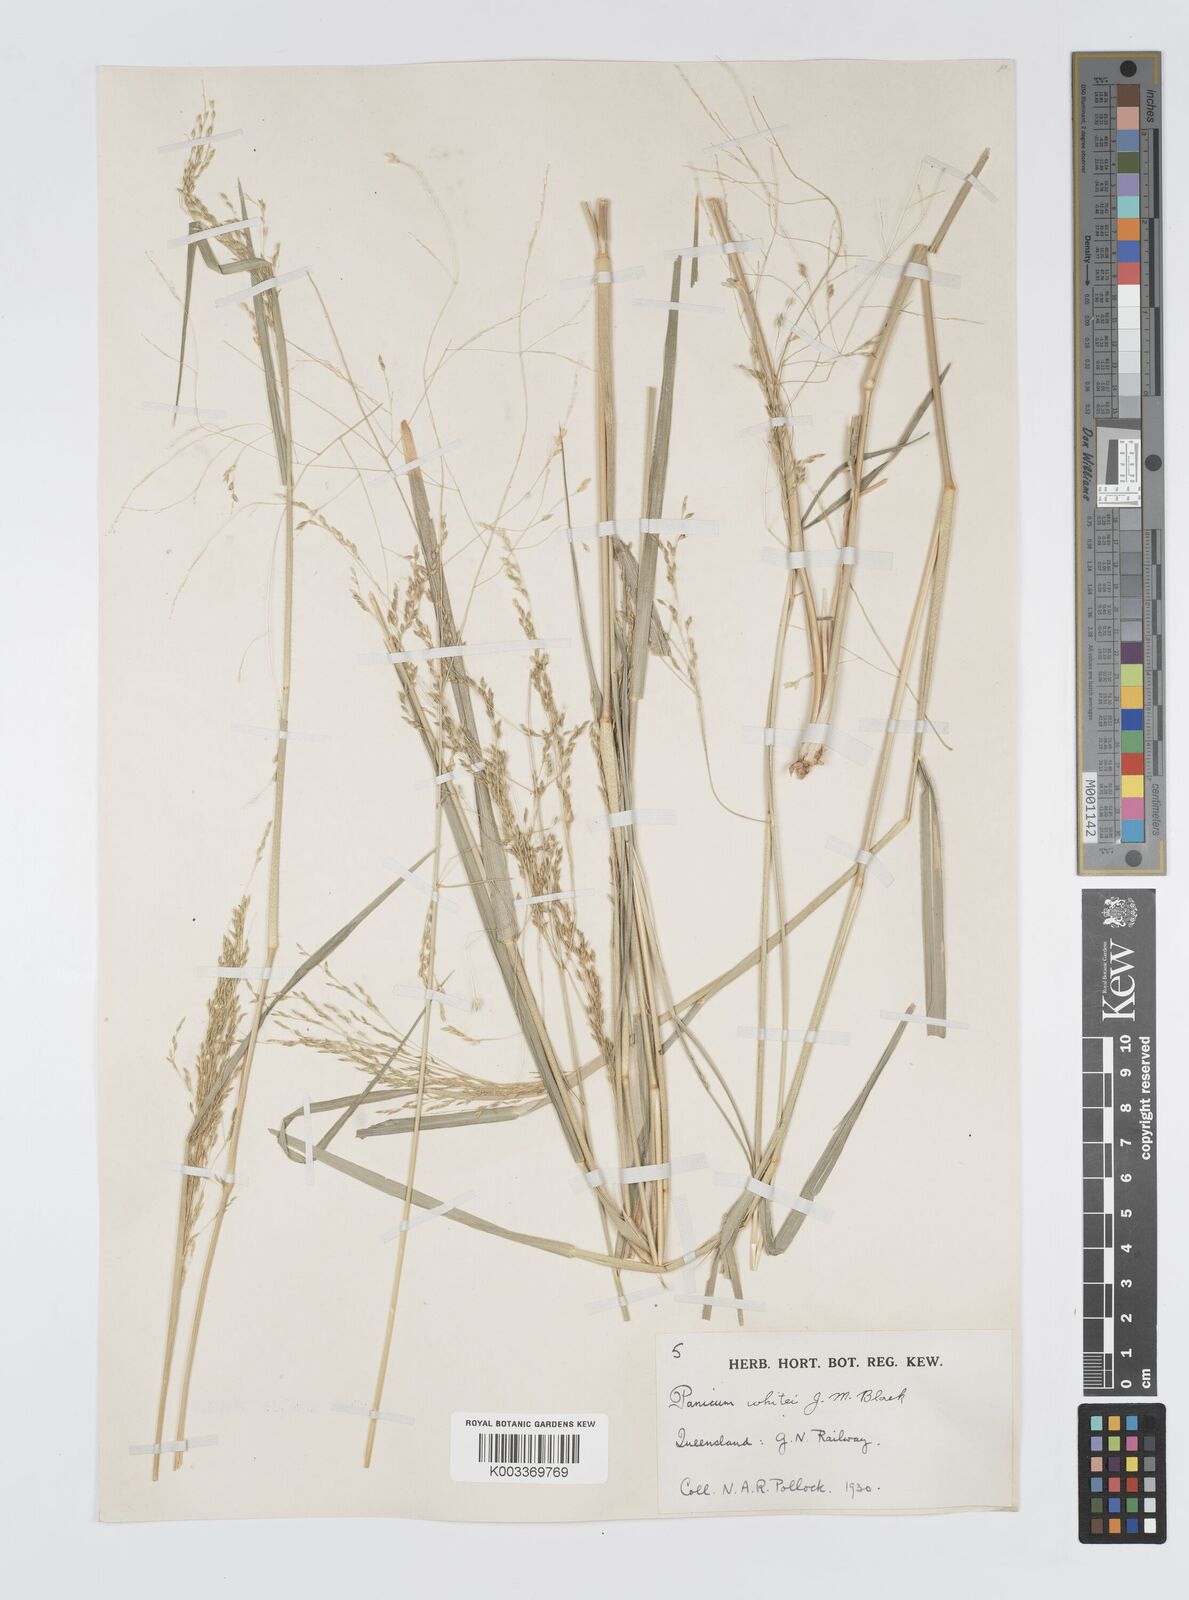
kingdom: Plantae
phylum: Tracheophyta
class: Liliopsida
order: Poales
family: Poaceae
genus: Panicum
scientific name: Panicum laevinode
